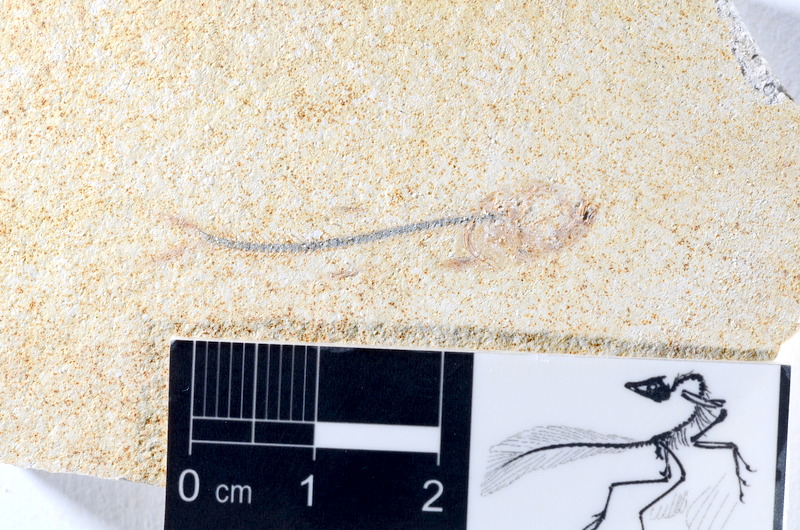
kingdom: Animalia
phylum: Chordata
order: Salmoniformes
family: Orthogonikleithridae
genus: Orthogonikleithrus
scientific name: Orthogonikleithrus hoelli
